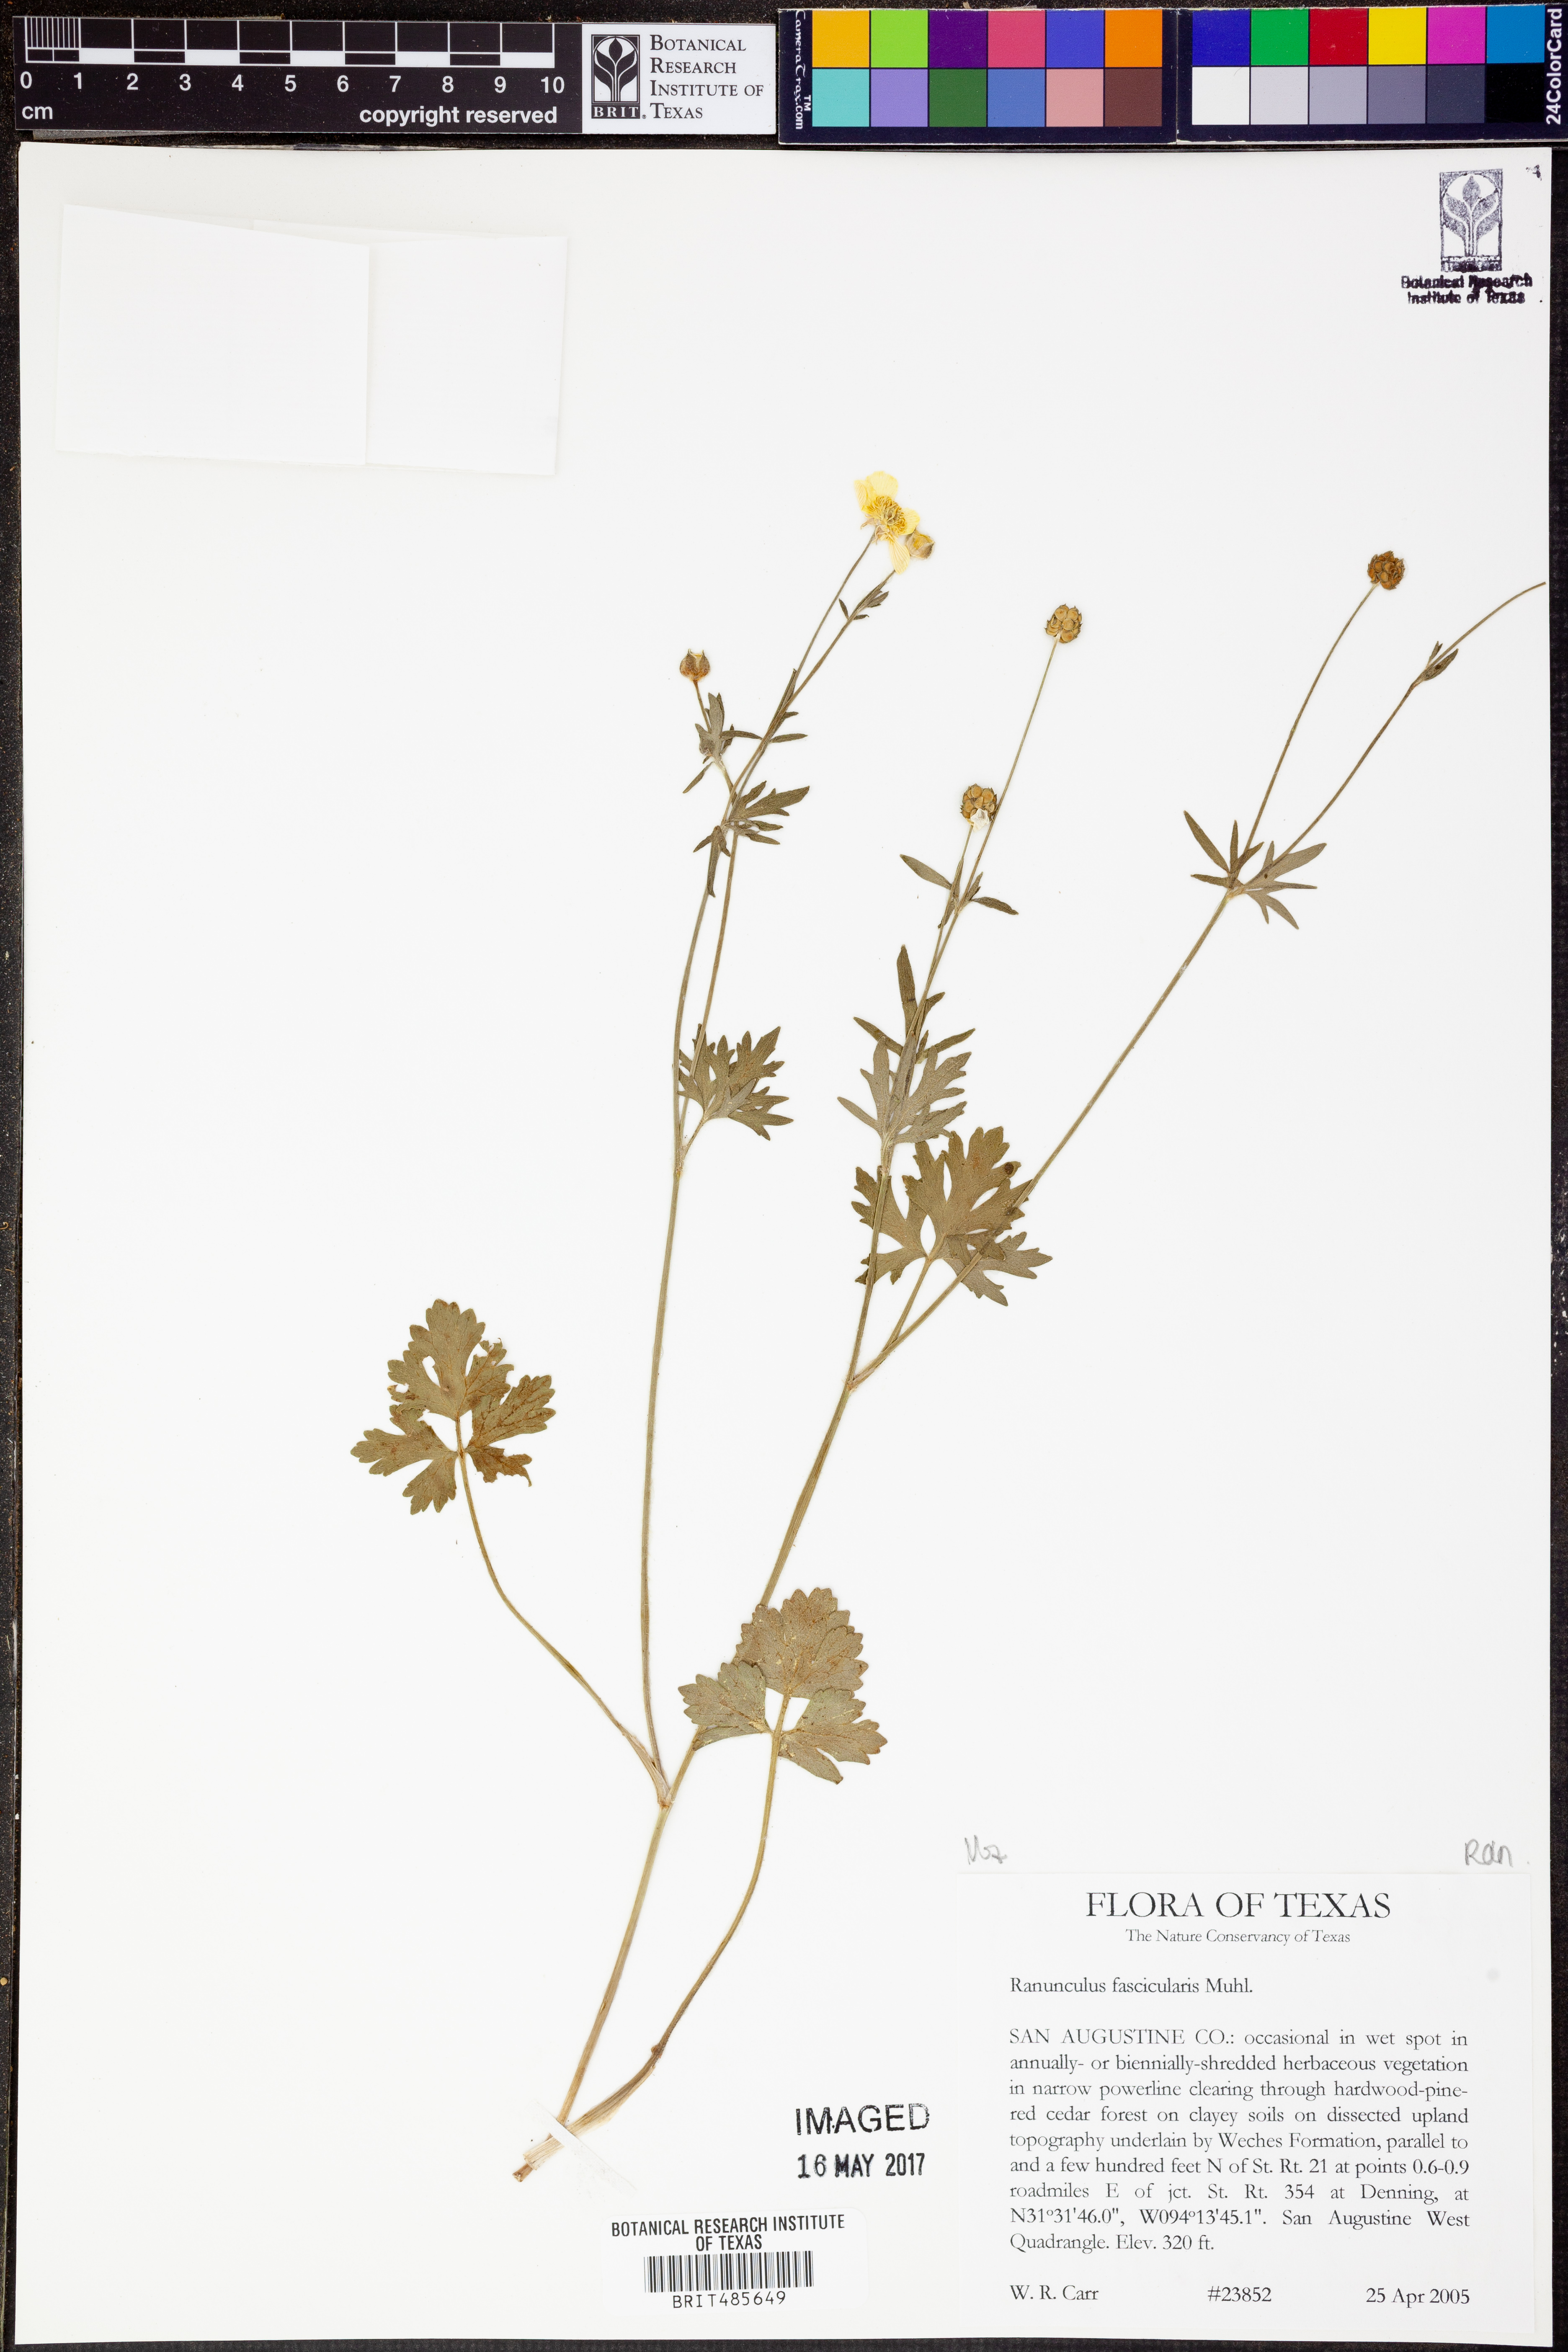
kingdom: Plantae
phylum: Tracheophyta
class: Magnoliopsida
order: Ranunculales
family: Ranunculaceae
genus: Ranunculus
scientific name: Ranunculus fascicularis
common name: Early buttercup
